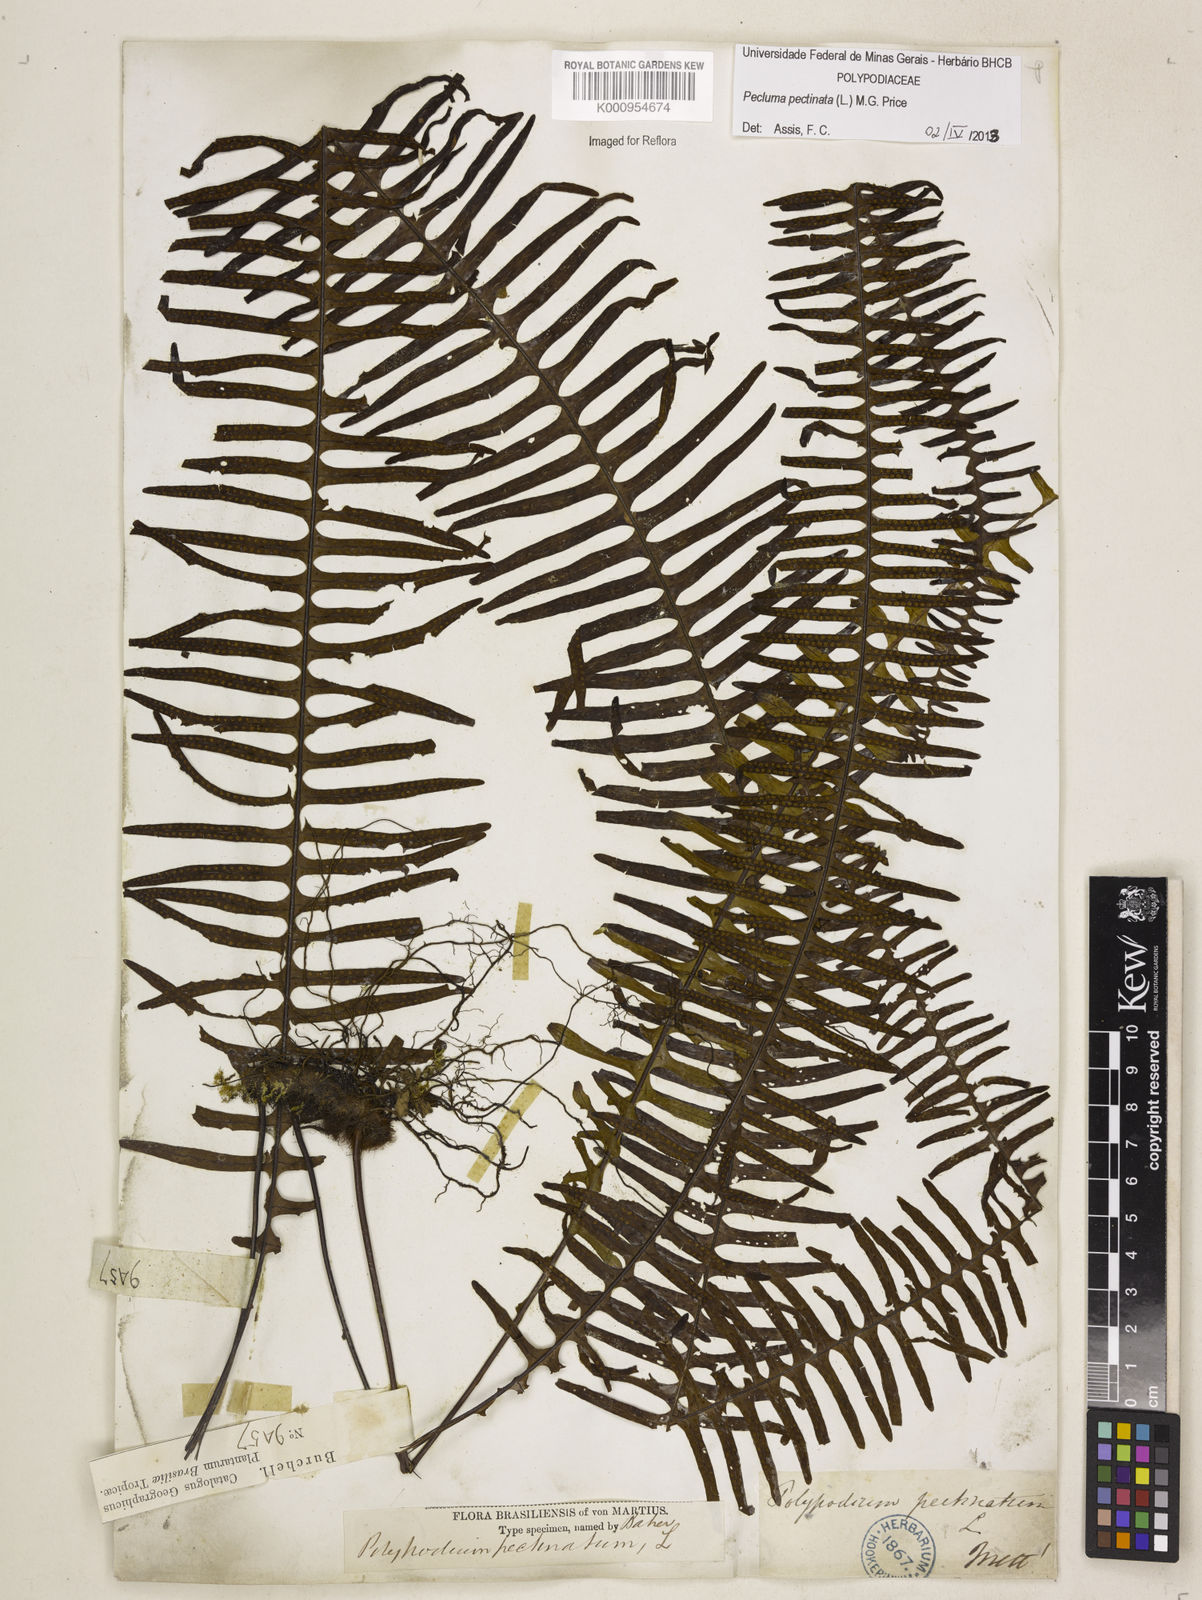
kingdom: Plantae
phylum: Tracheophyta
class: Polypodiopsida
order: Polypodiales
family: Polypodiaceae
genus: Pecluma
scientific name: Pecluma pectinata
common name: Msasa fern
